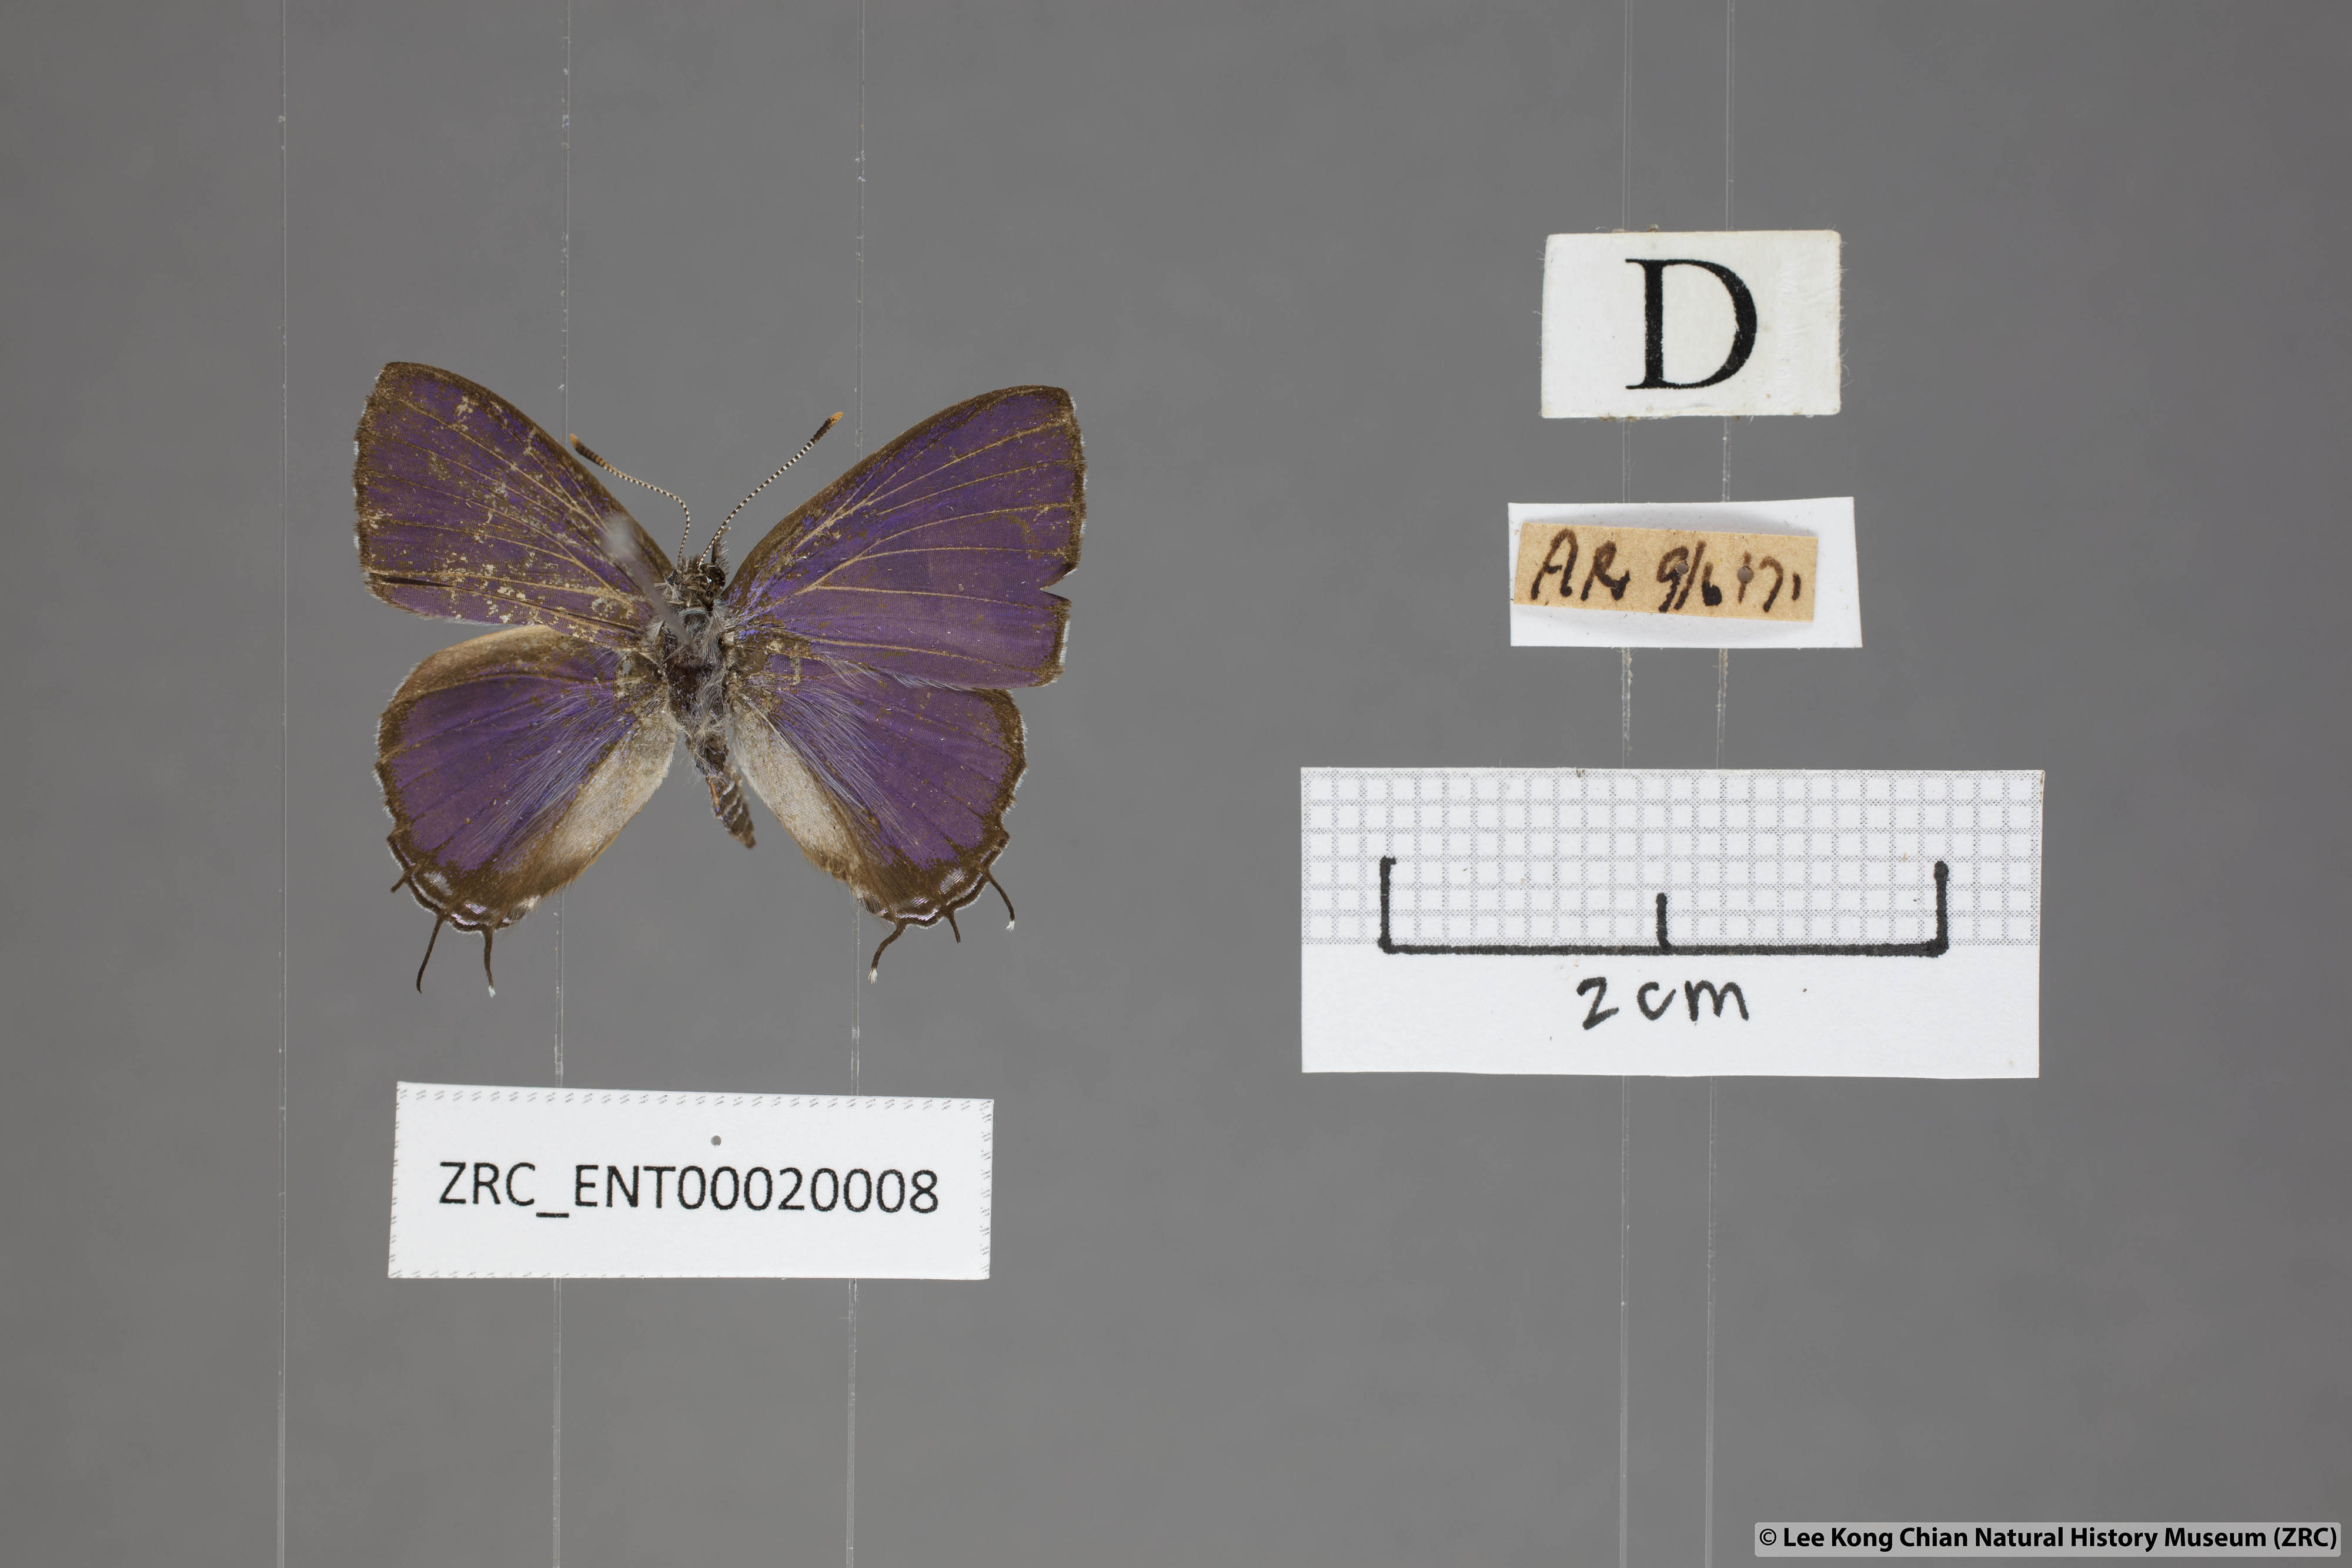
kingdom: Animalia
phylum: Arthropoda
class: Insecta
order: Lepidoptera
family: Lycaenidae
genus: Catapaecilma
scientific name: Catapaecilma subochrea
